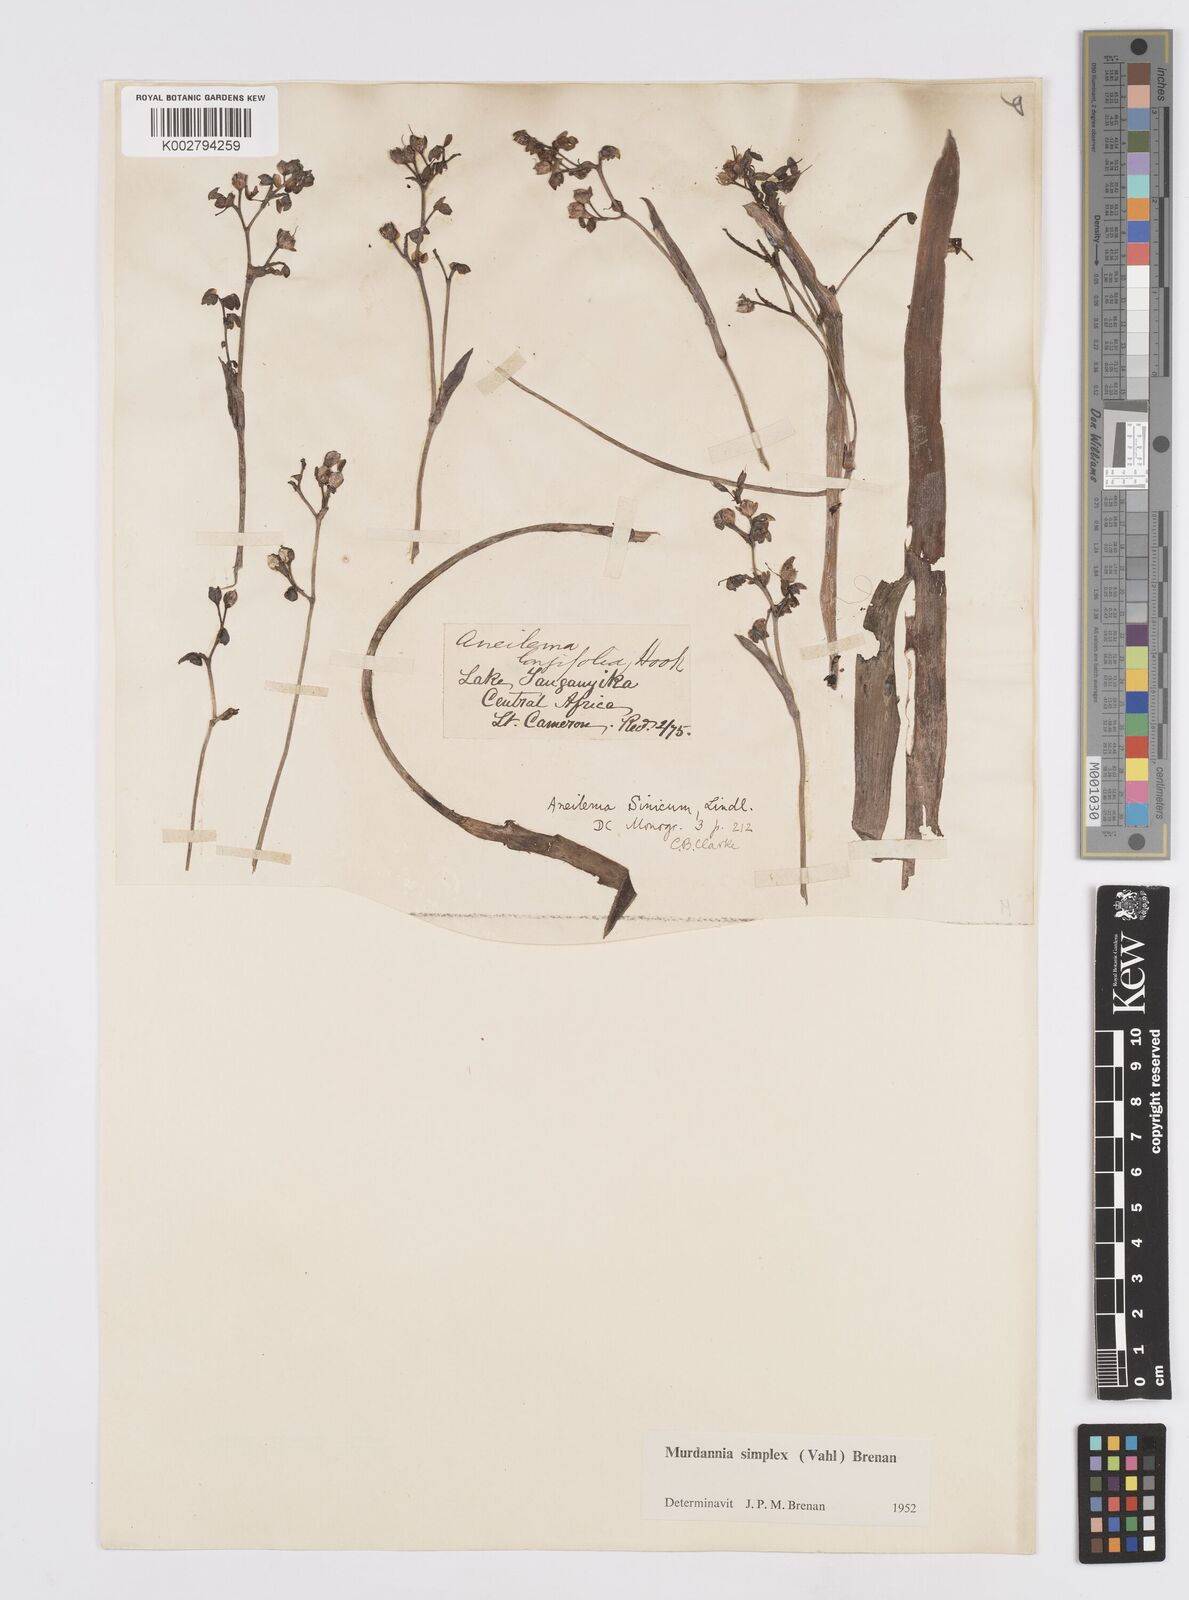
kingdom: Plantae
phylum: Tracheophyta
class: Liliopsida
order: Commelinales
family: Commelinaceae
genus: Murdannia
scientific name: Murdannia simplex
